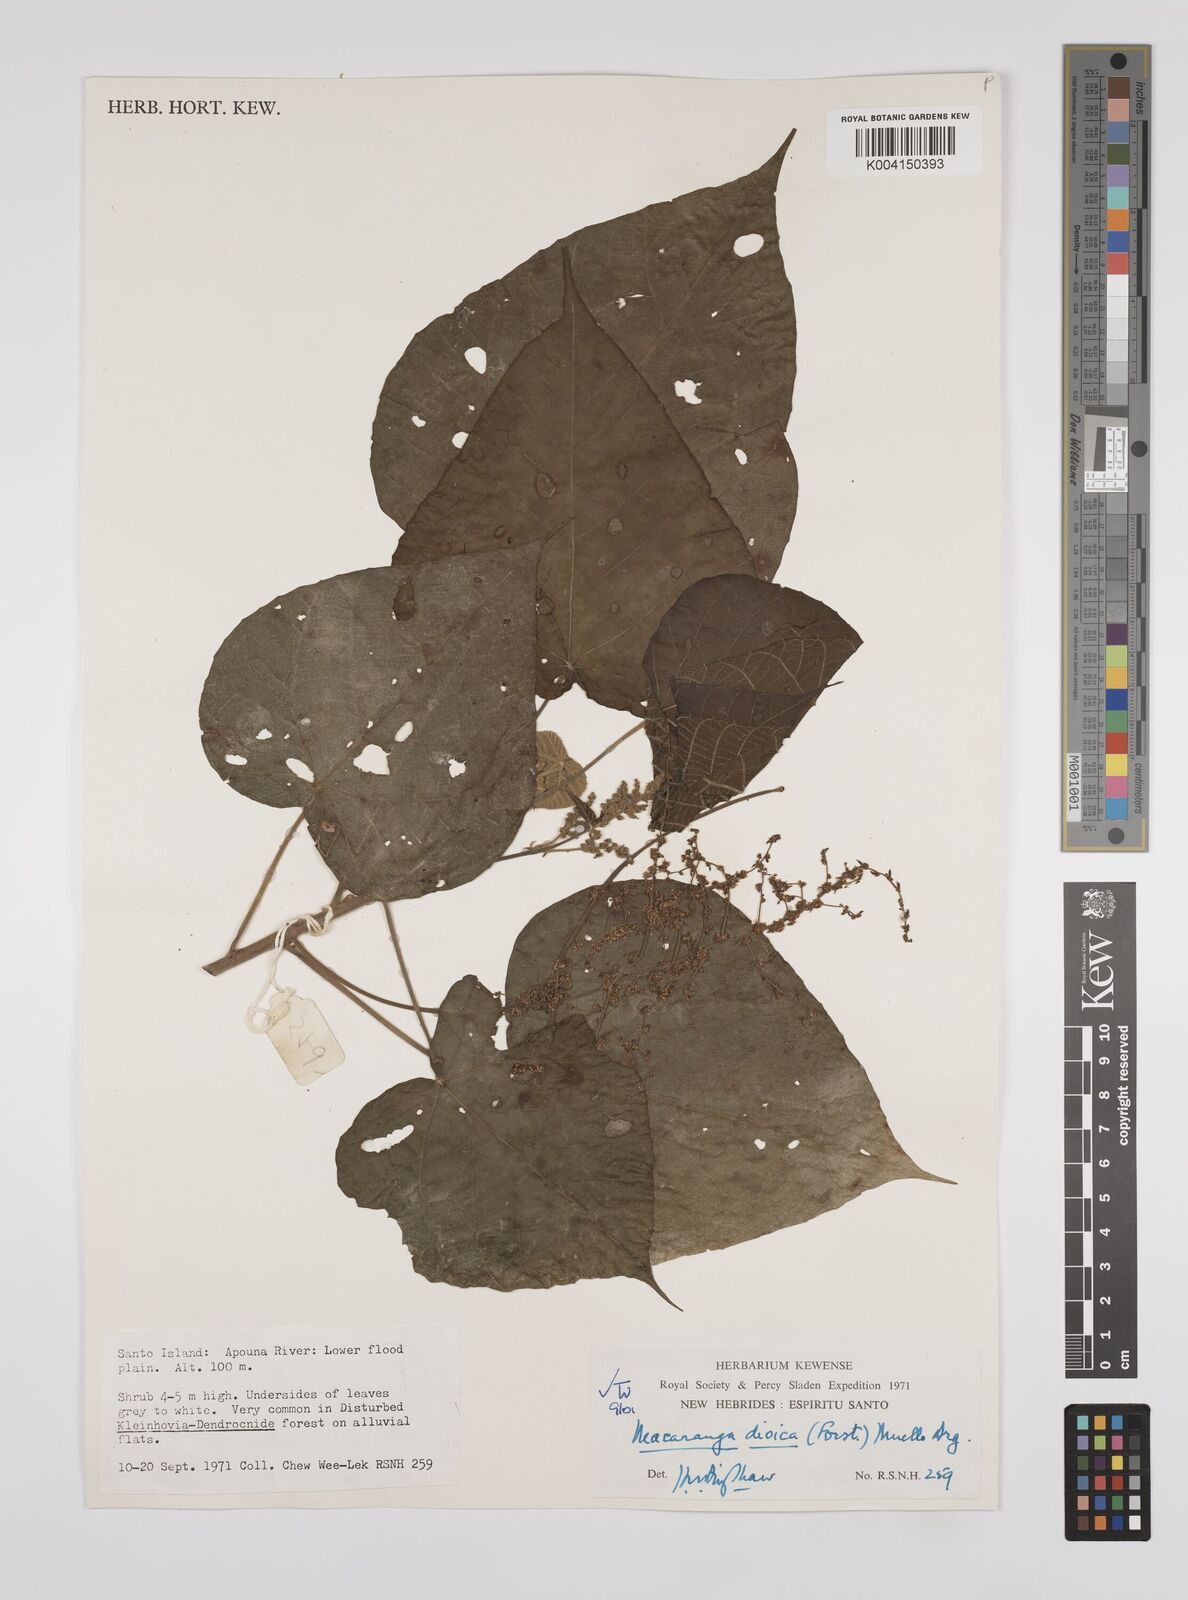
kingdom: Plantae
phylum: Tracheophyta
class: Magnoliopsida
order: Malpighiales
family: Euphorbiaceae
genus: Macaranga
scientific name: Macaranga dioica
